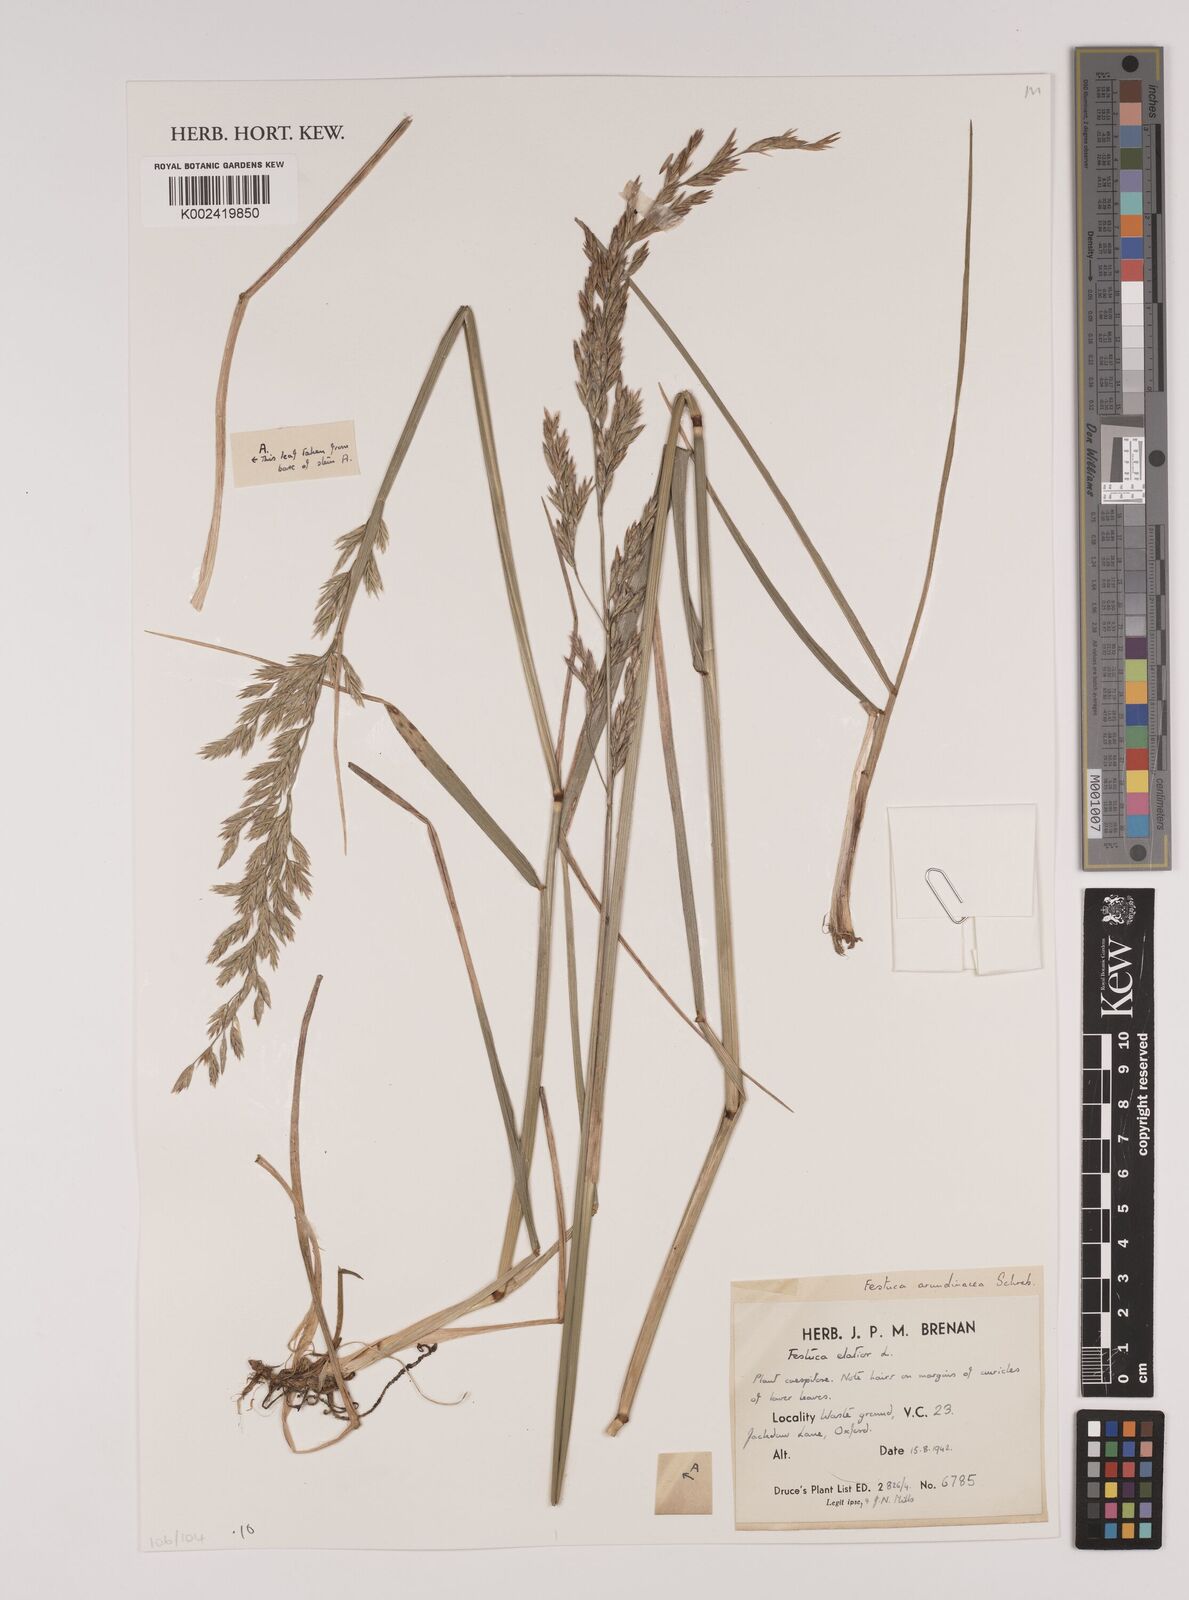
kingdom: Plantae
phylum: Tracheophyta
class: Liliopsida
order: Poales
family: Poaceae
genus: Lolium
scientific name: Lolium arundinaceum
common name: Reed fescue
